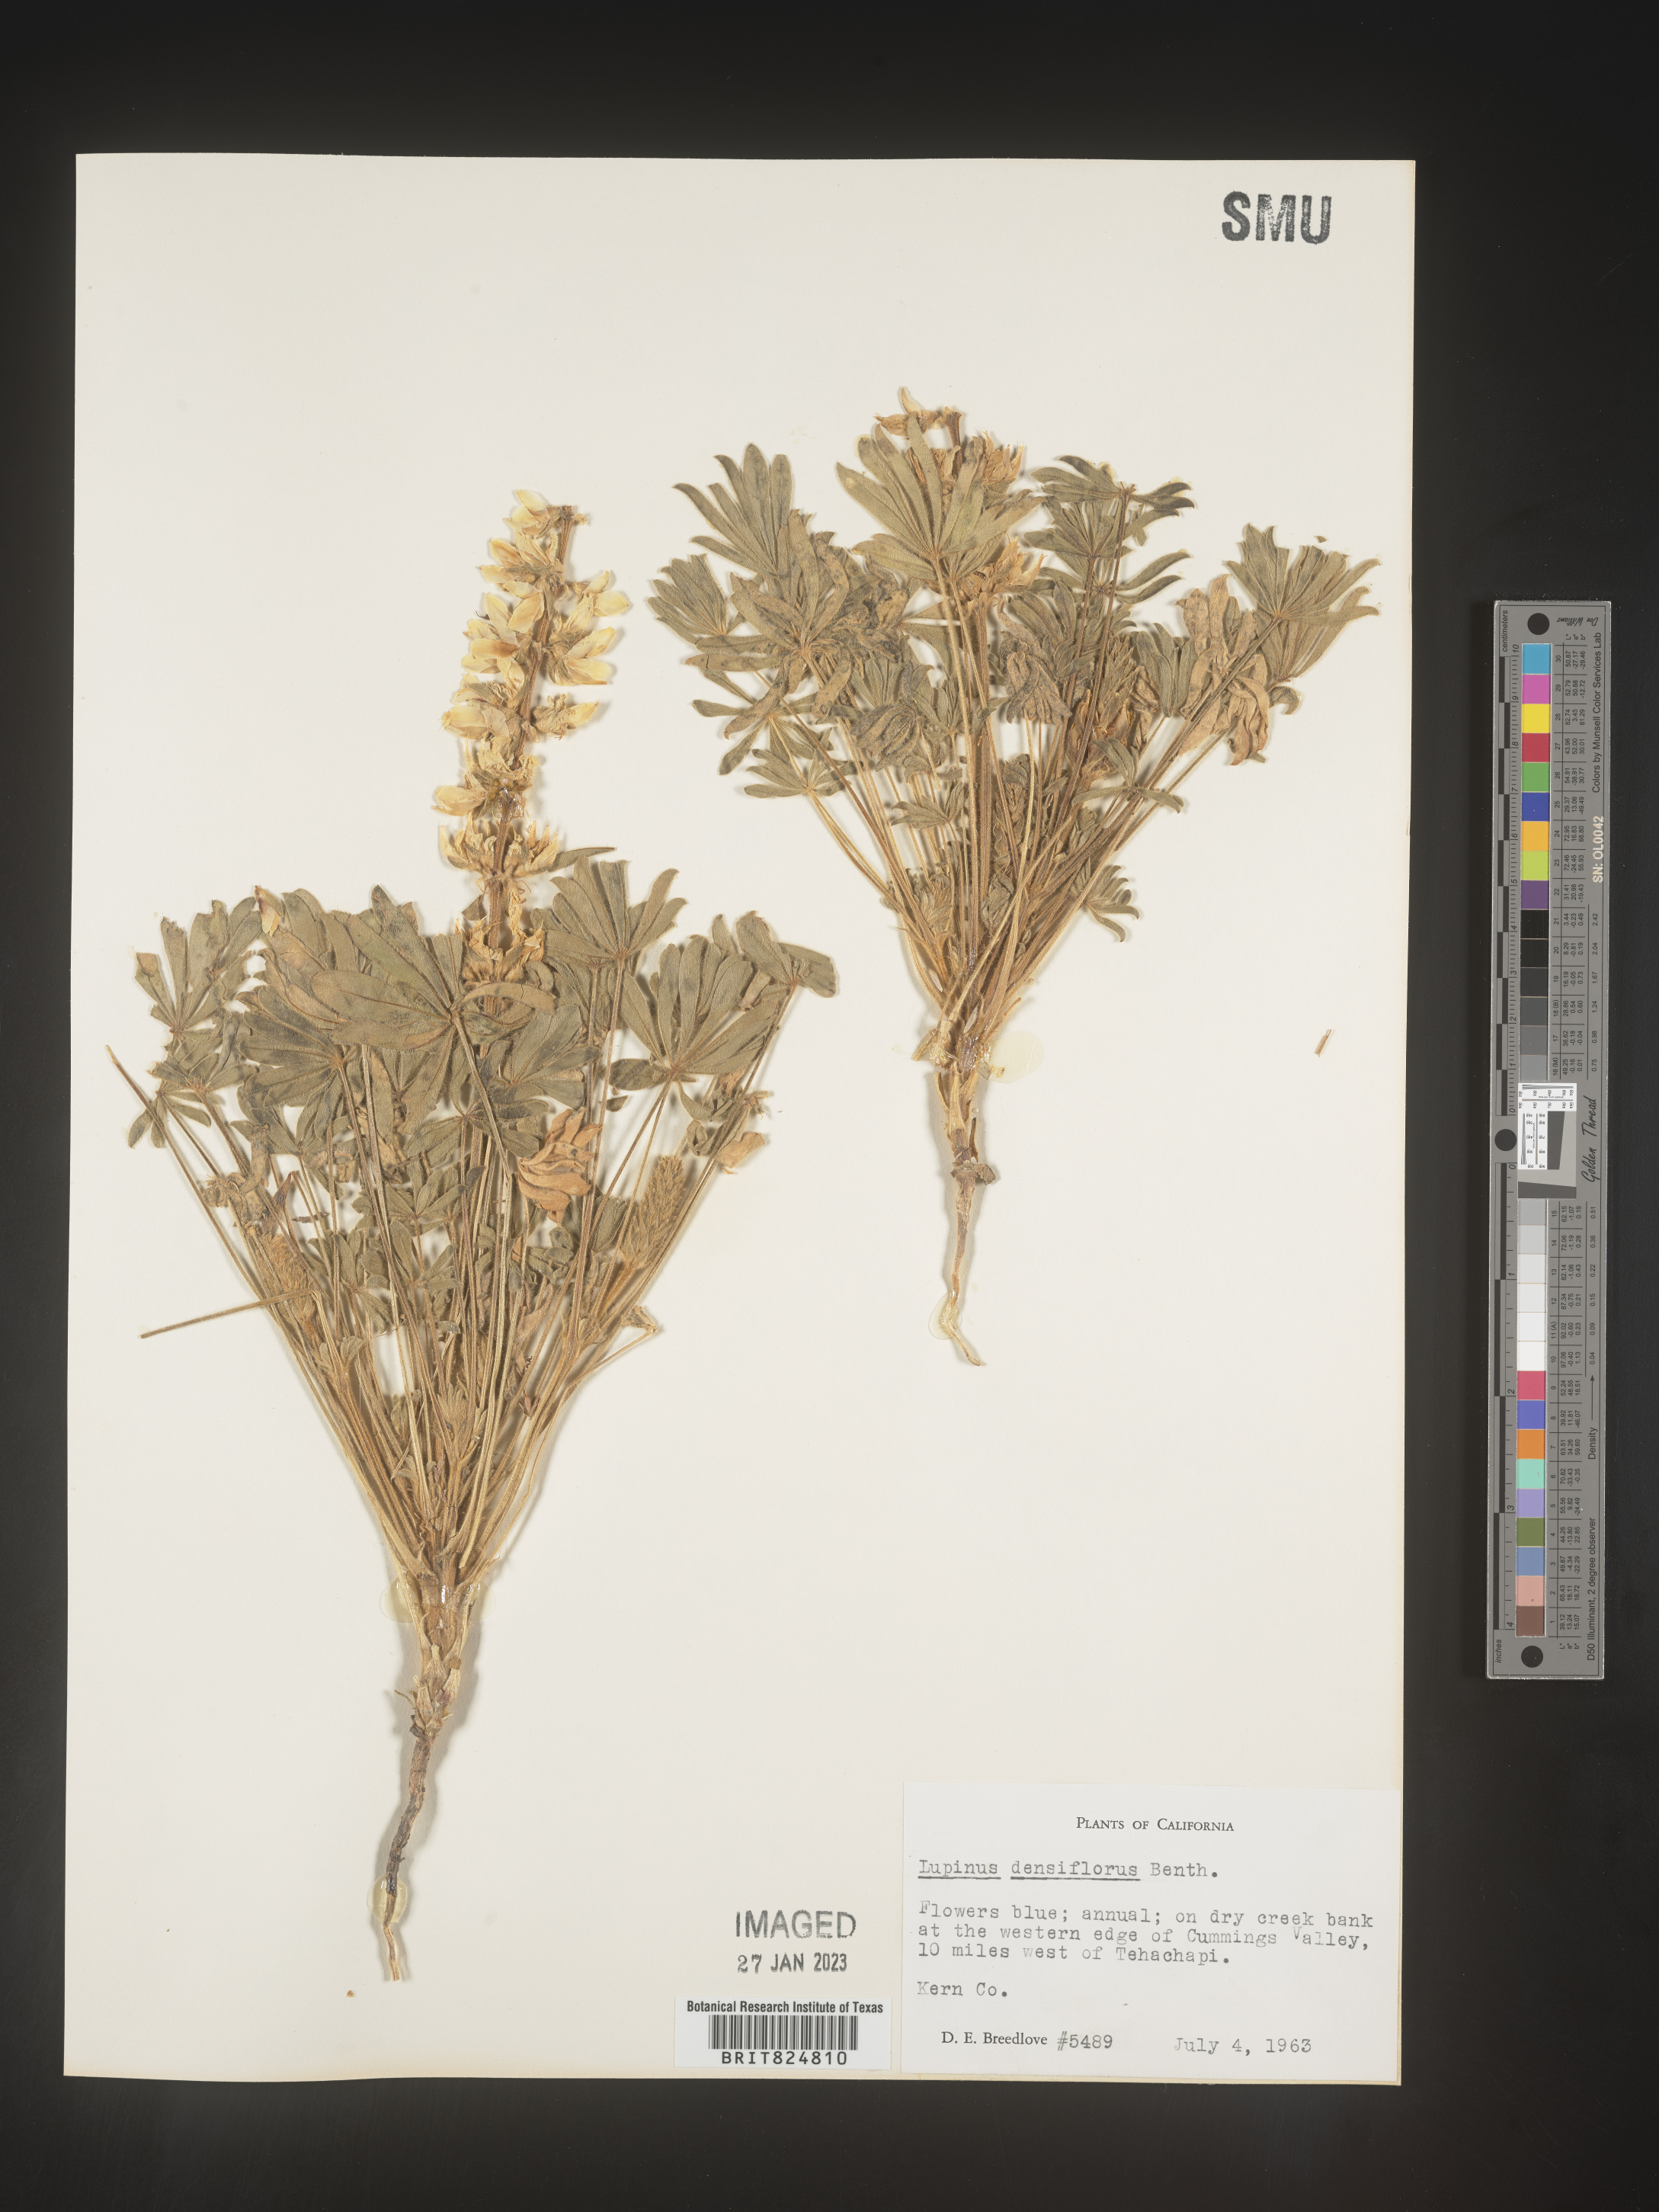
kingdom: Plantae
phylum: Tracheophyta
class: Magnoliopsida
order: Fabales
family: Fabaceae
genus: Lupinus
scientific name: Lupinus
